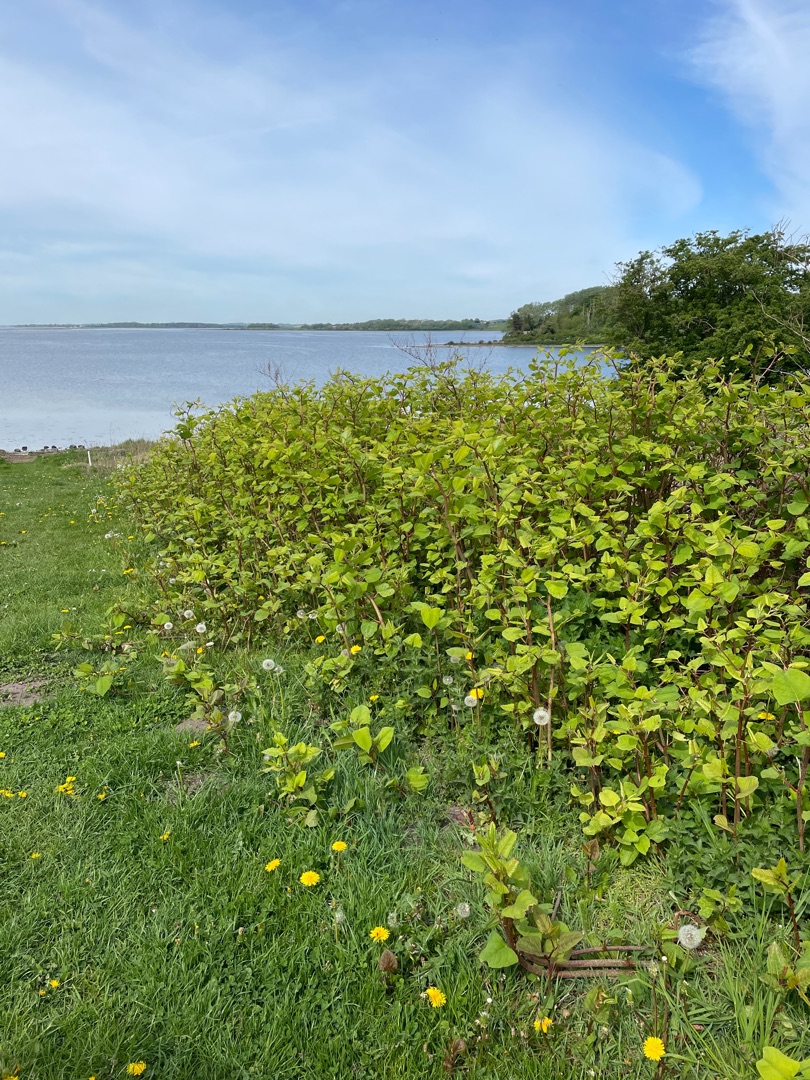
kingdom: Plantae
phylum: Tracheophyta
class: Magnoliopsida
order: Caryophyllales
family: Polygonaceae
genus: Reynoutria
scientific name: Reynoutria
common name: Pileurt (Reynoutria-slægten)
